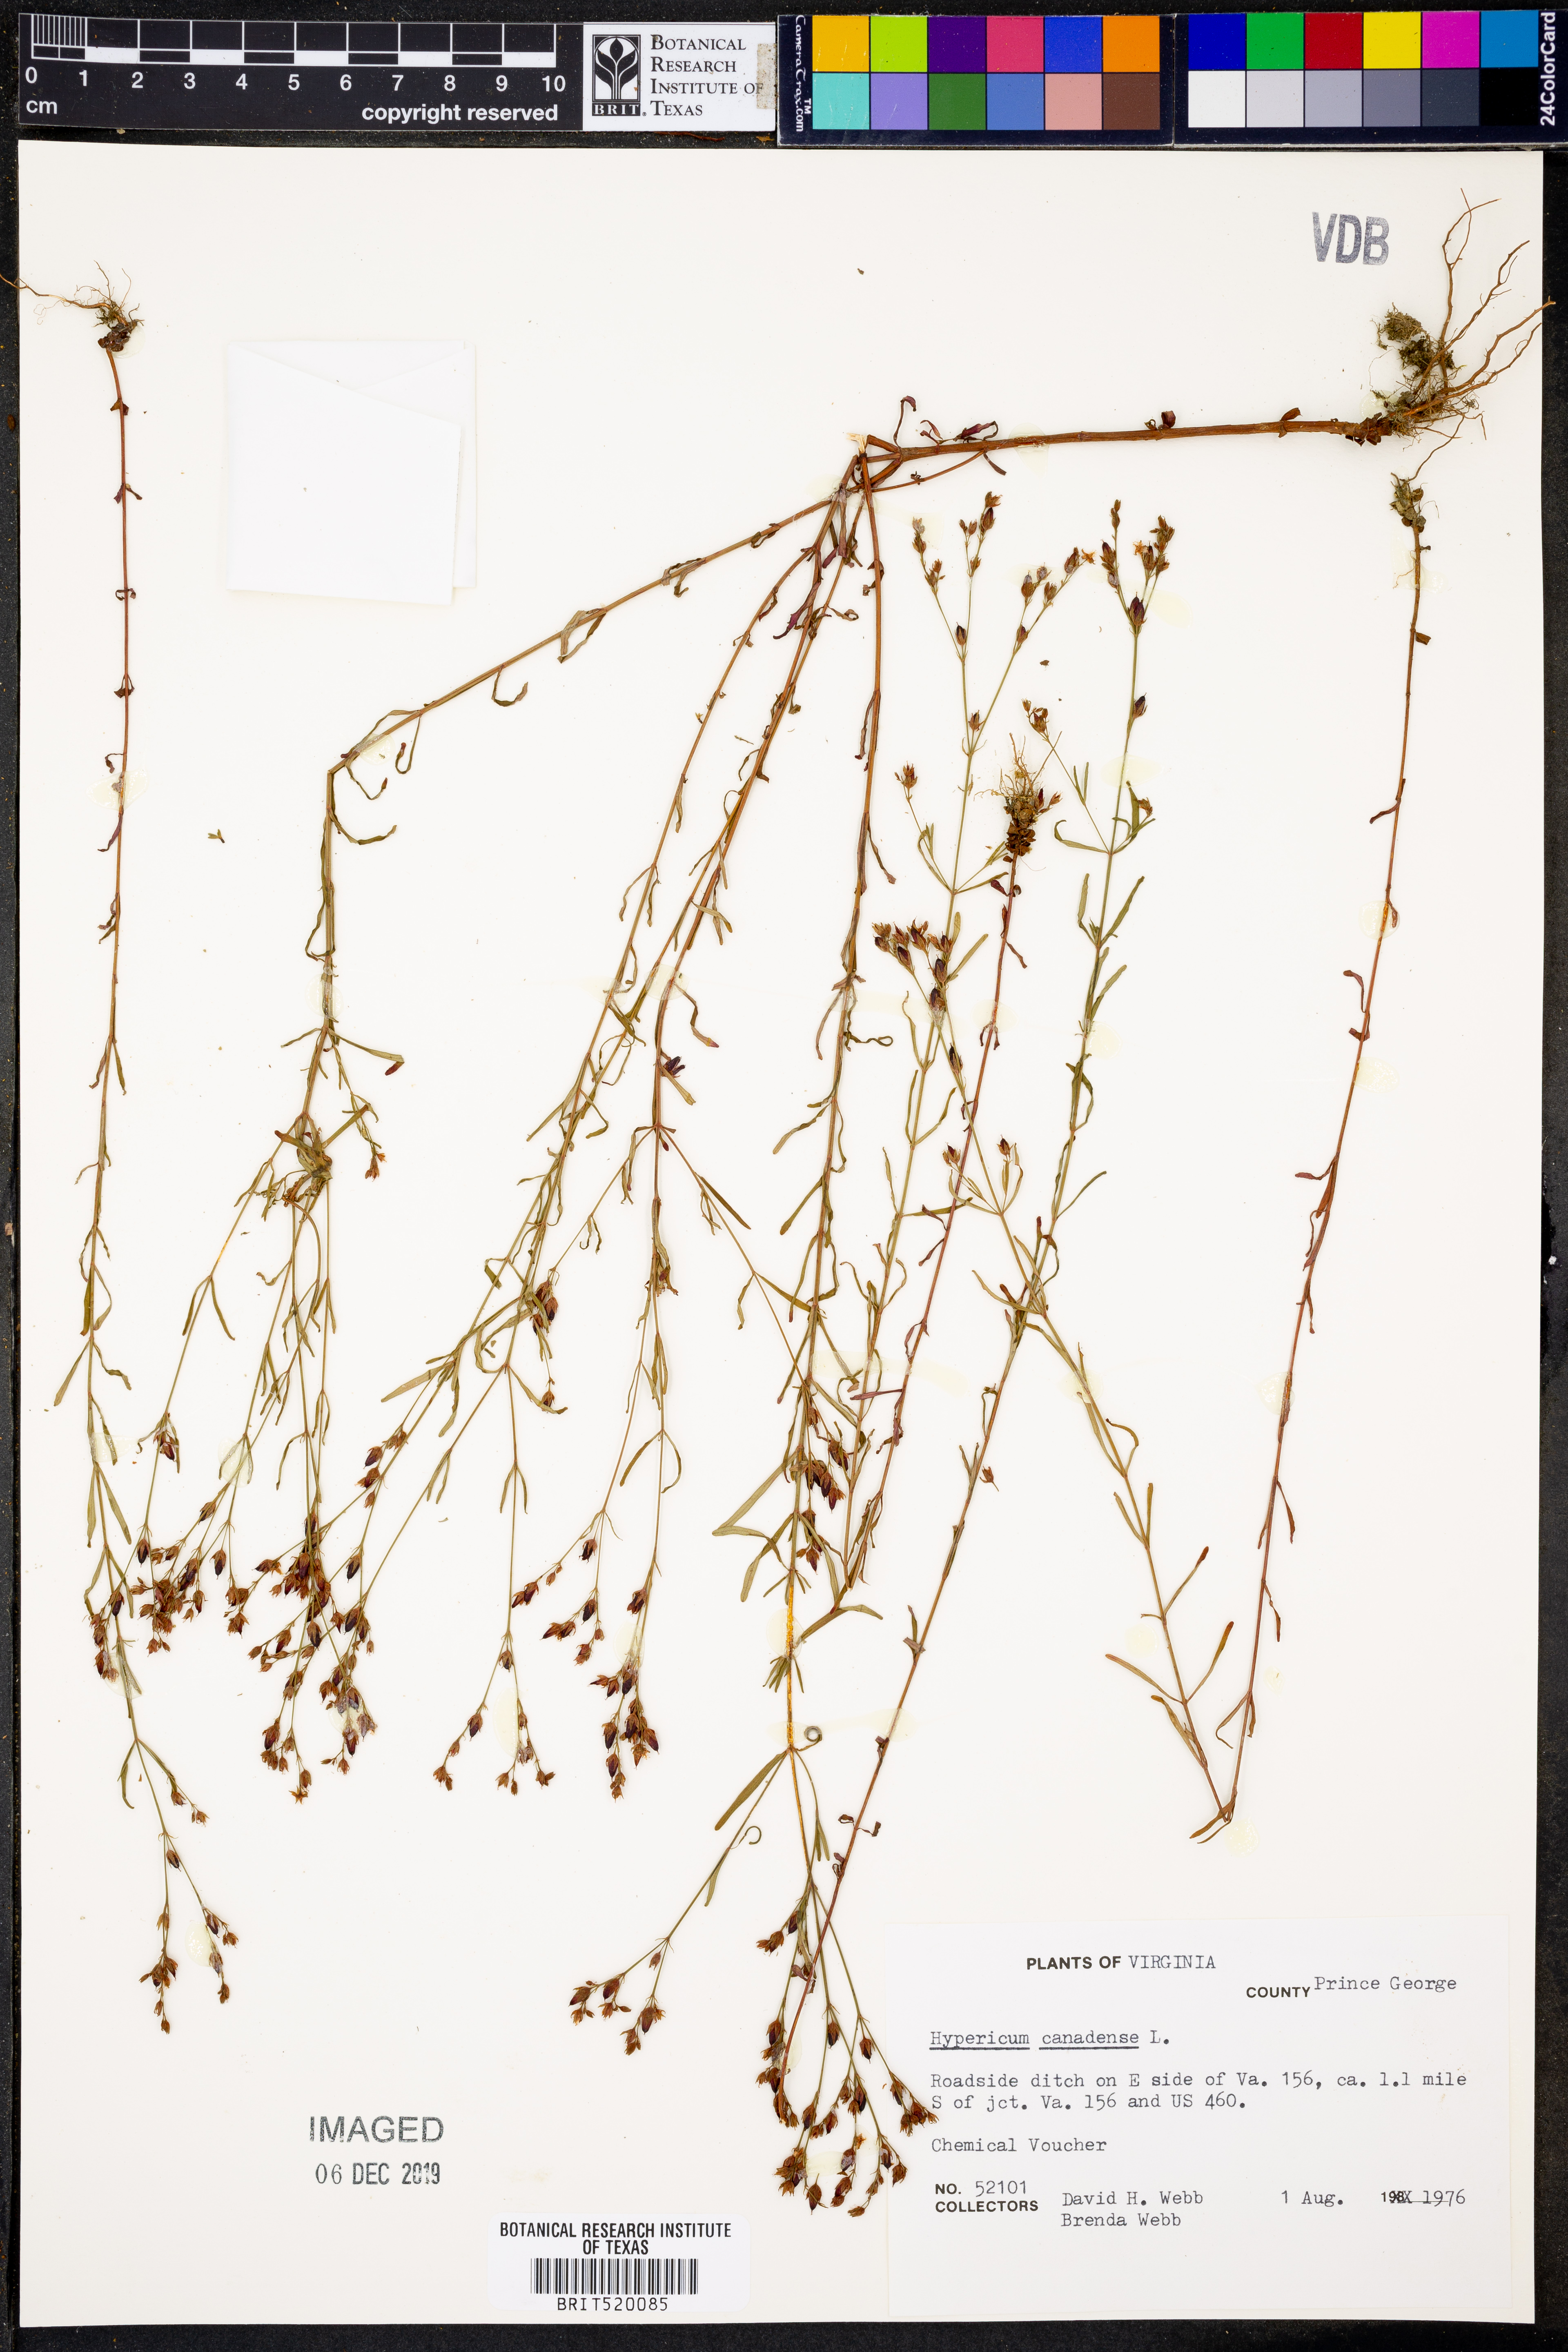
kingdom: Plantae
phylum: Tracheophyta
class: Magnoliopsida
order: Malpighiales
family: Hypericaceae
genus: Hypericum
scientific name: Hypericum canadense
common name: Irish st. john's-wort
